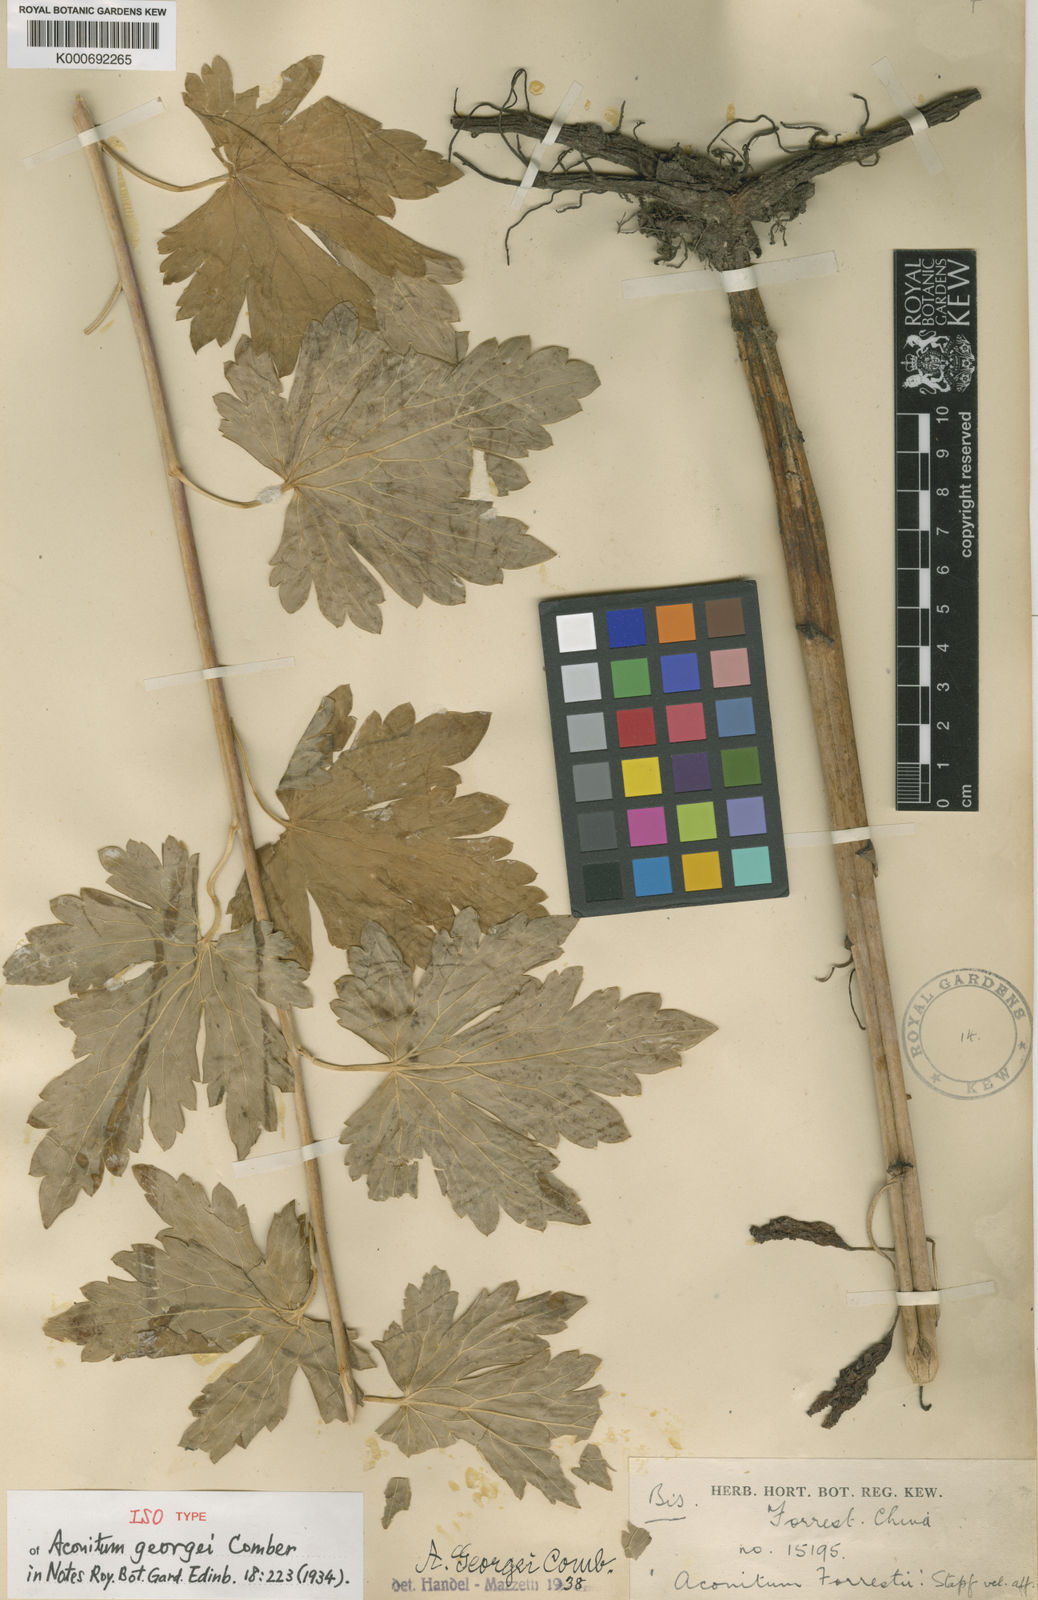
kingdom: Plantae
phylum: Tracheophyta
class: Magnoliopsida
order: Ranunculales
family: Ranunculaceae
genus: Aconitum
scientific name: Aconitum georgei
